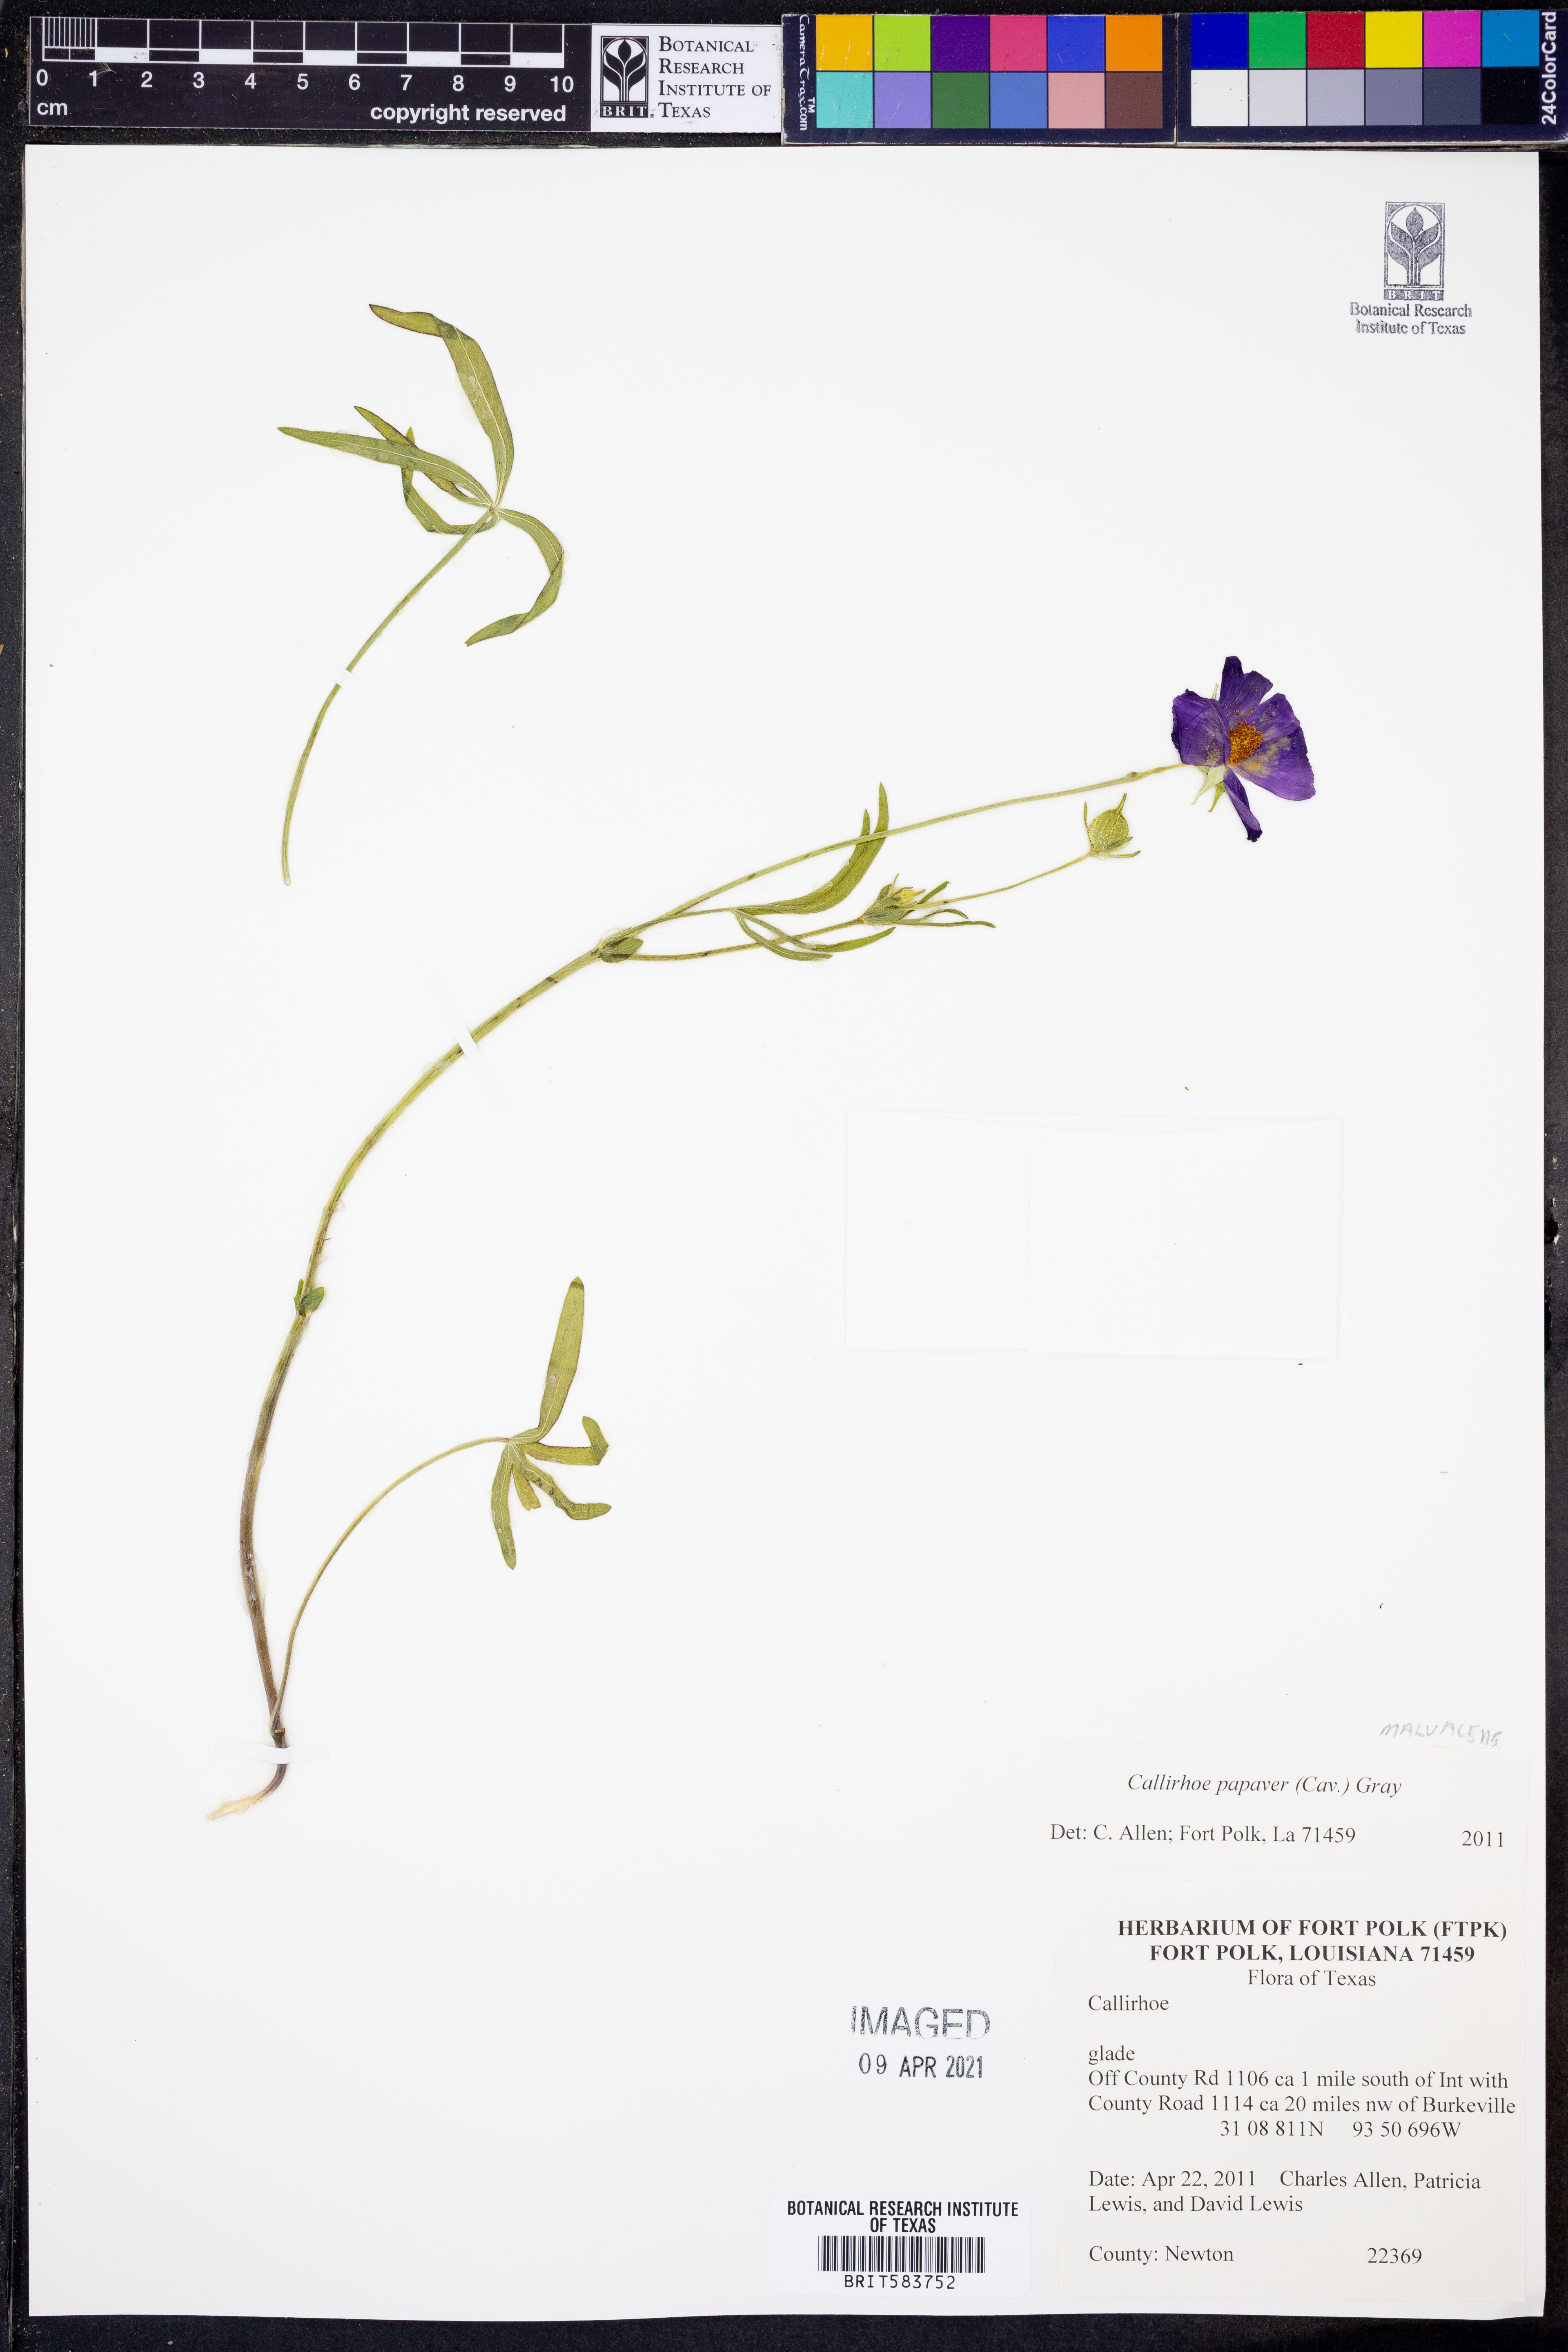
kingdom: Plantae
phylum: Tracheophyta
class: Magnoliopsida
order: Malvales
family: Malvaceae
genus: Callirhoe
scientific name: Callirhoe papaver
